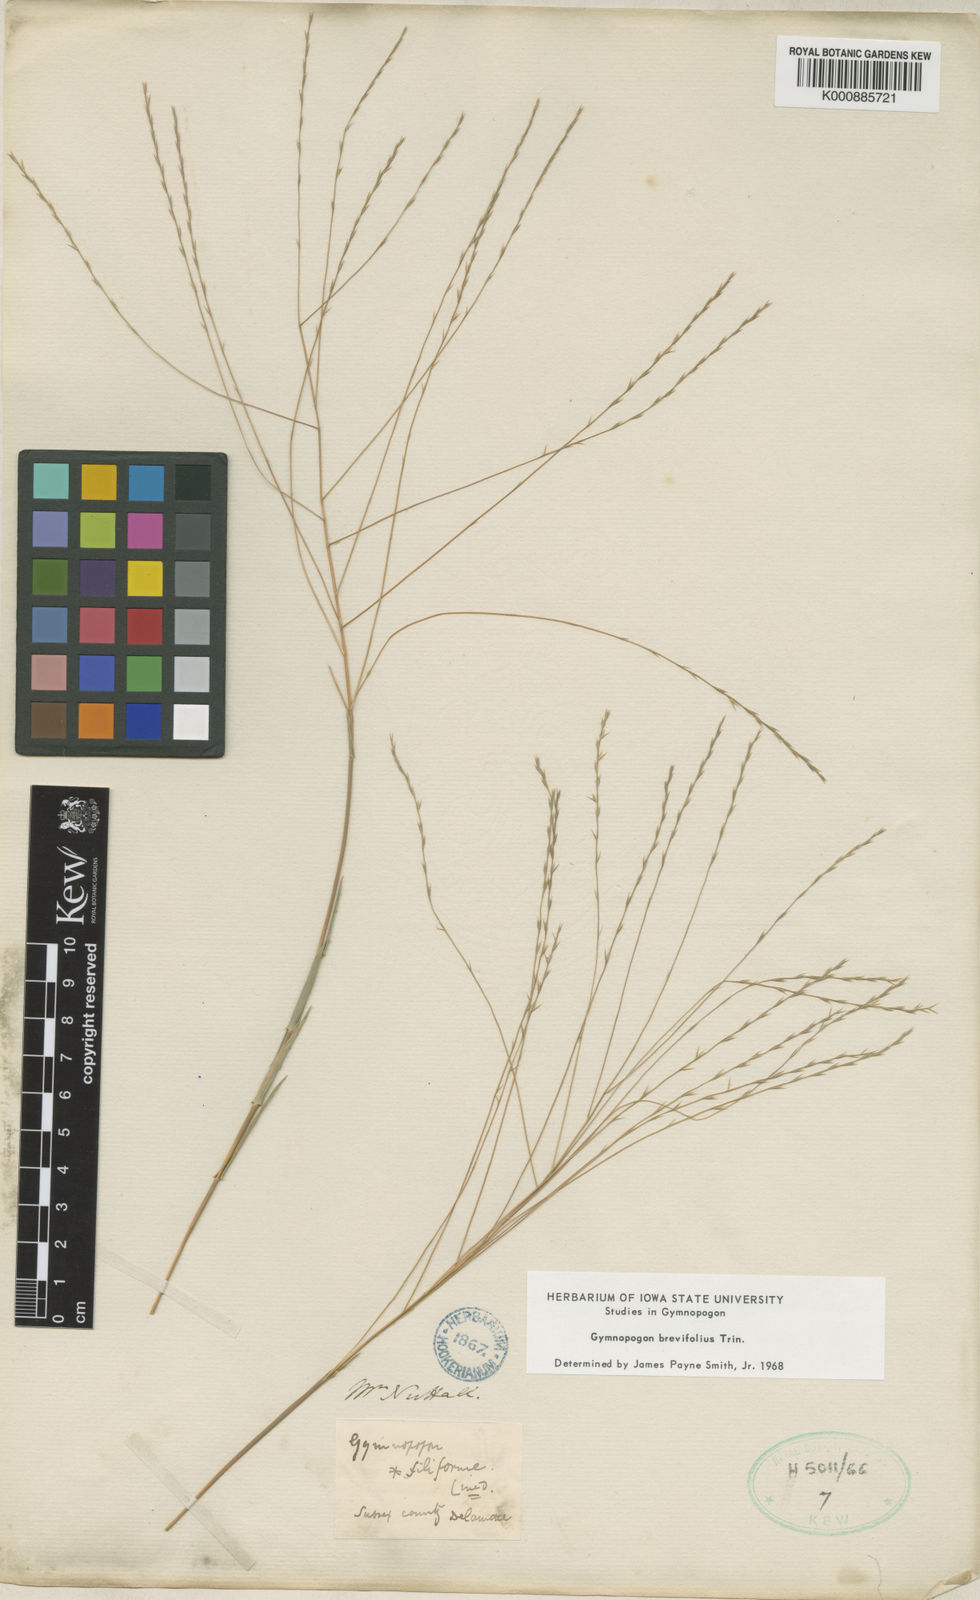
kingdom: Plantae
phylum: Tracheophyta
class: Liliopsida
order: Poales
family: Poaceae
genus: Gymnopogon
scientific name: Gymnopogon brevifolius
